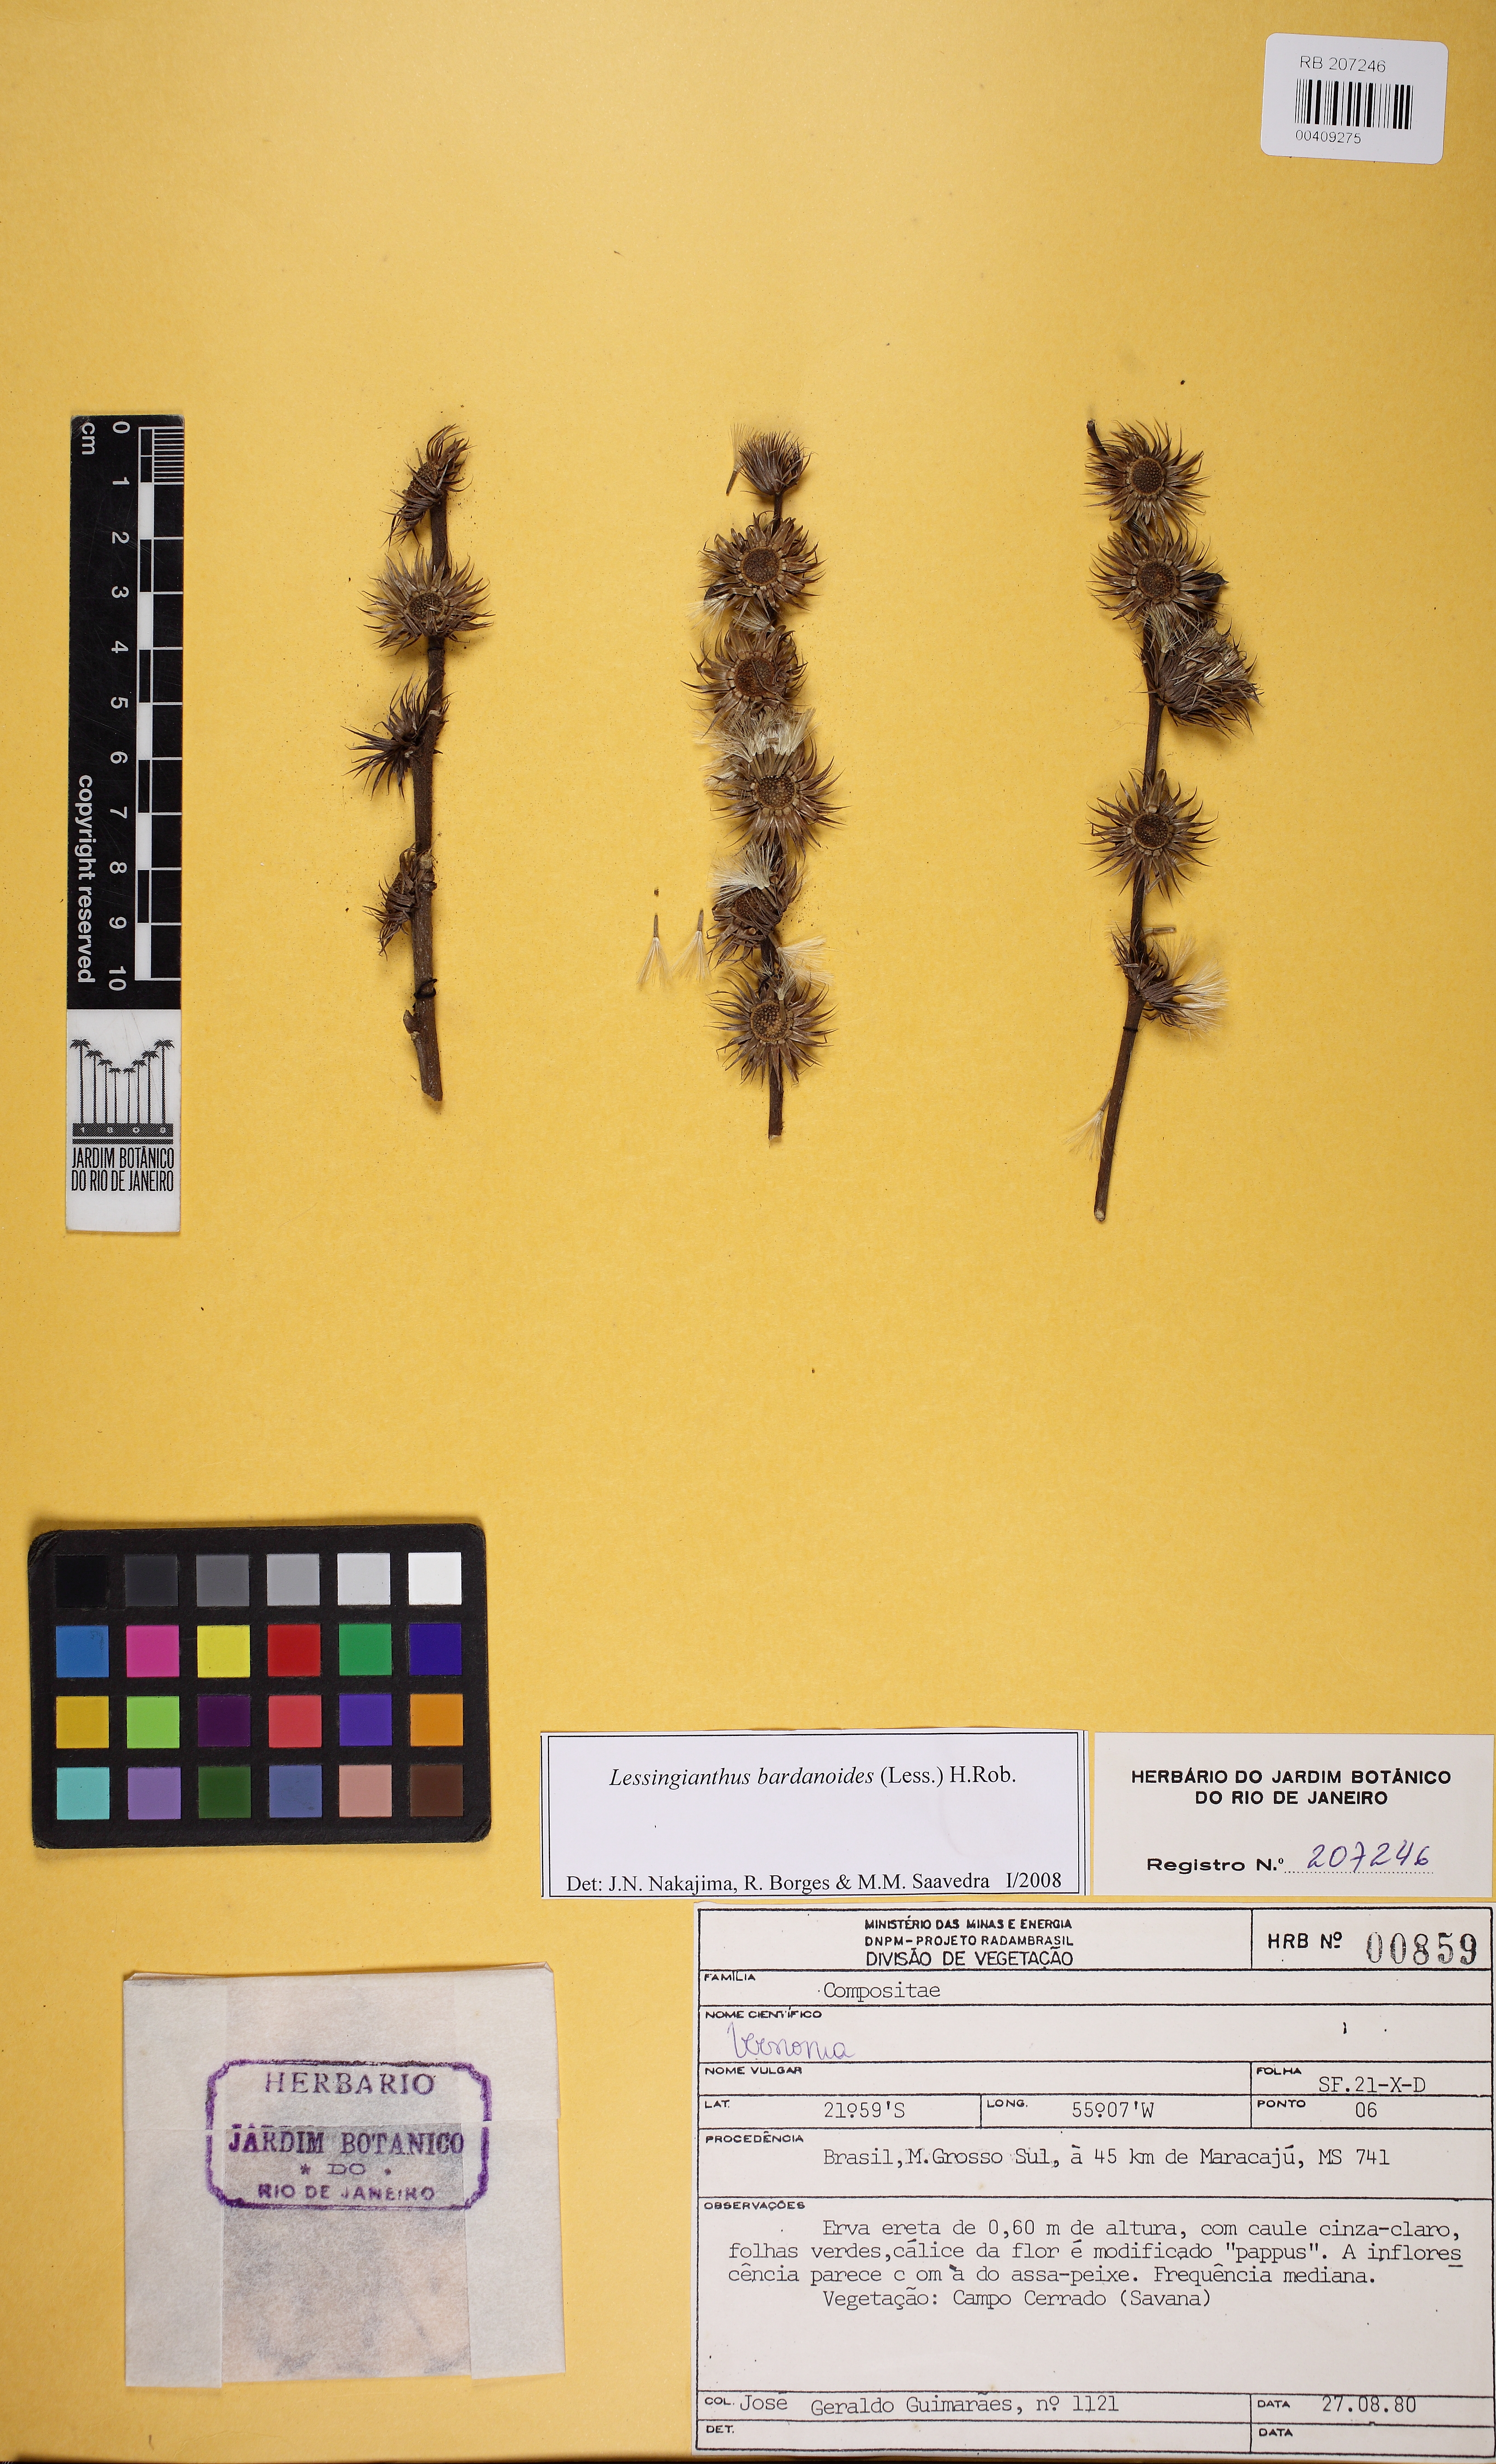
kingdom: Plantae
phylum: Tracheophyta
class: Magnoliopsida
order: Asterales
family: Asteraceae
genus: Lessingianthus
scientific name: Lessingianthus bardanioides
